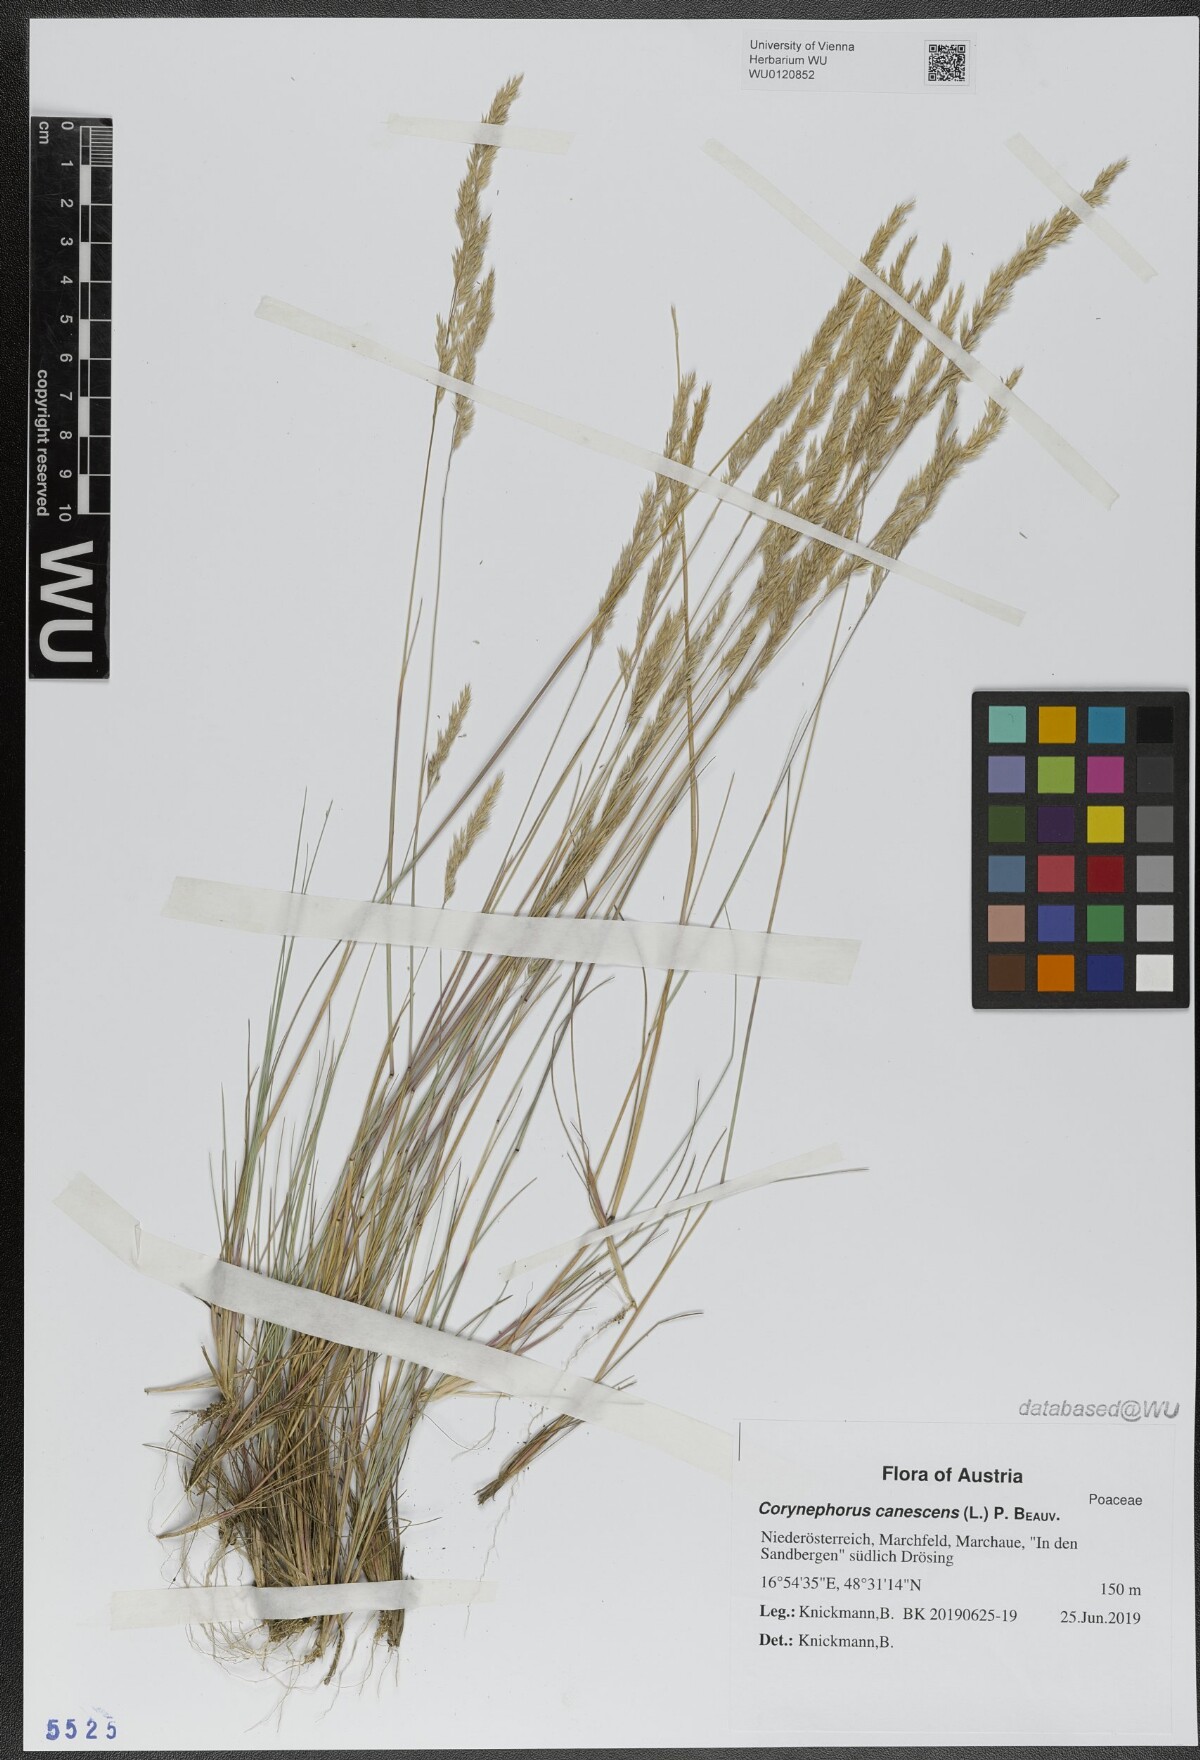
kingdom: Plantae
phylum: Tracheophyta
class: Liliopsida
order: Poales
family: Poaceae
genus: Corynephorus
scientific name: Corynephorus canescens
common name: Grey hair-grass
